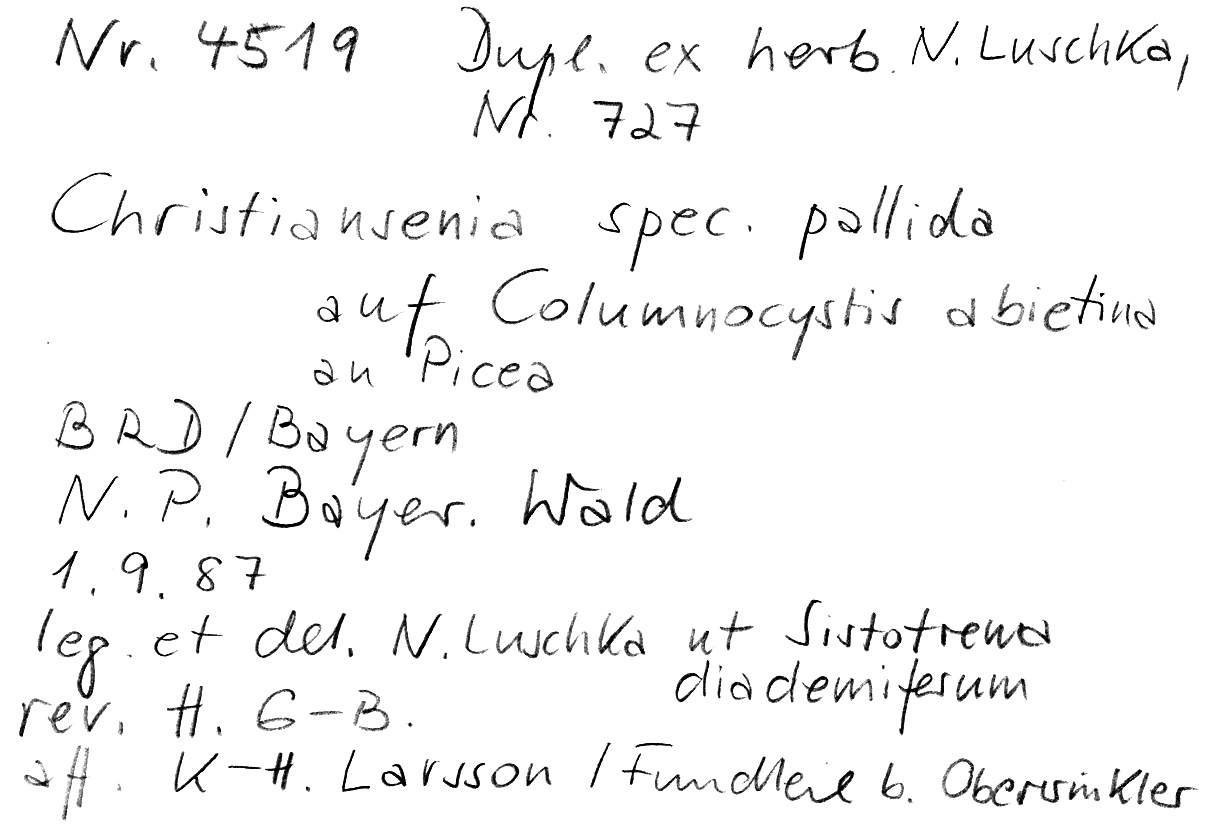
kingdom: Fungi
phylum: Basidiomycota
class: Agaricomycetes
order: Gloeophyllales
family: Gloeophyllaceae
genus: Veluticeps
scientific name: Veluticeps abietina
